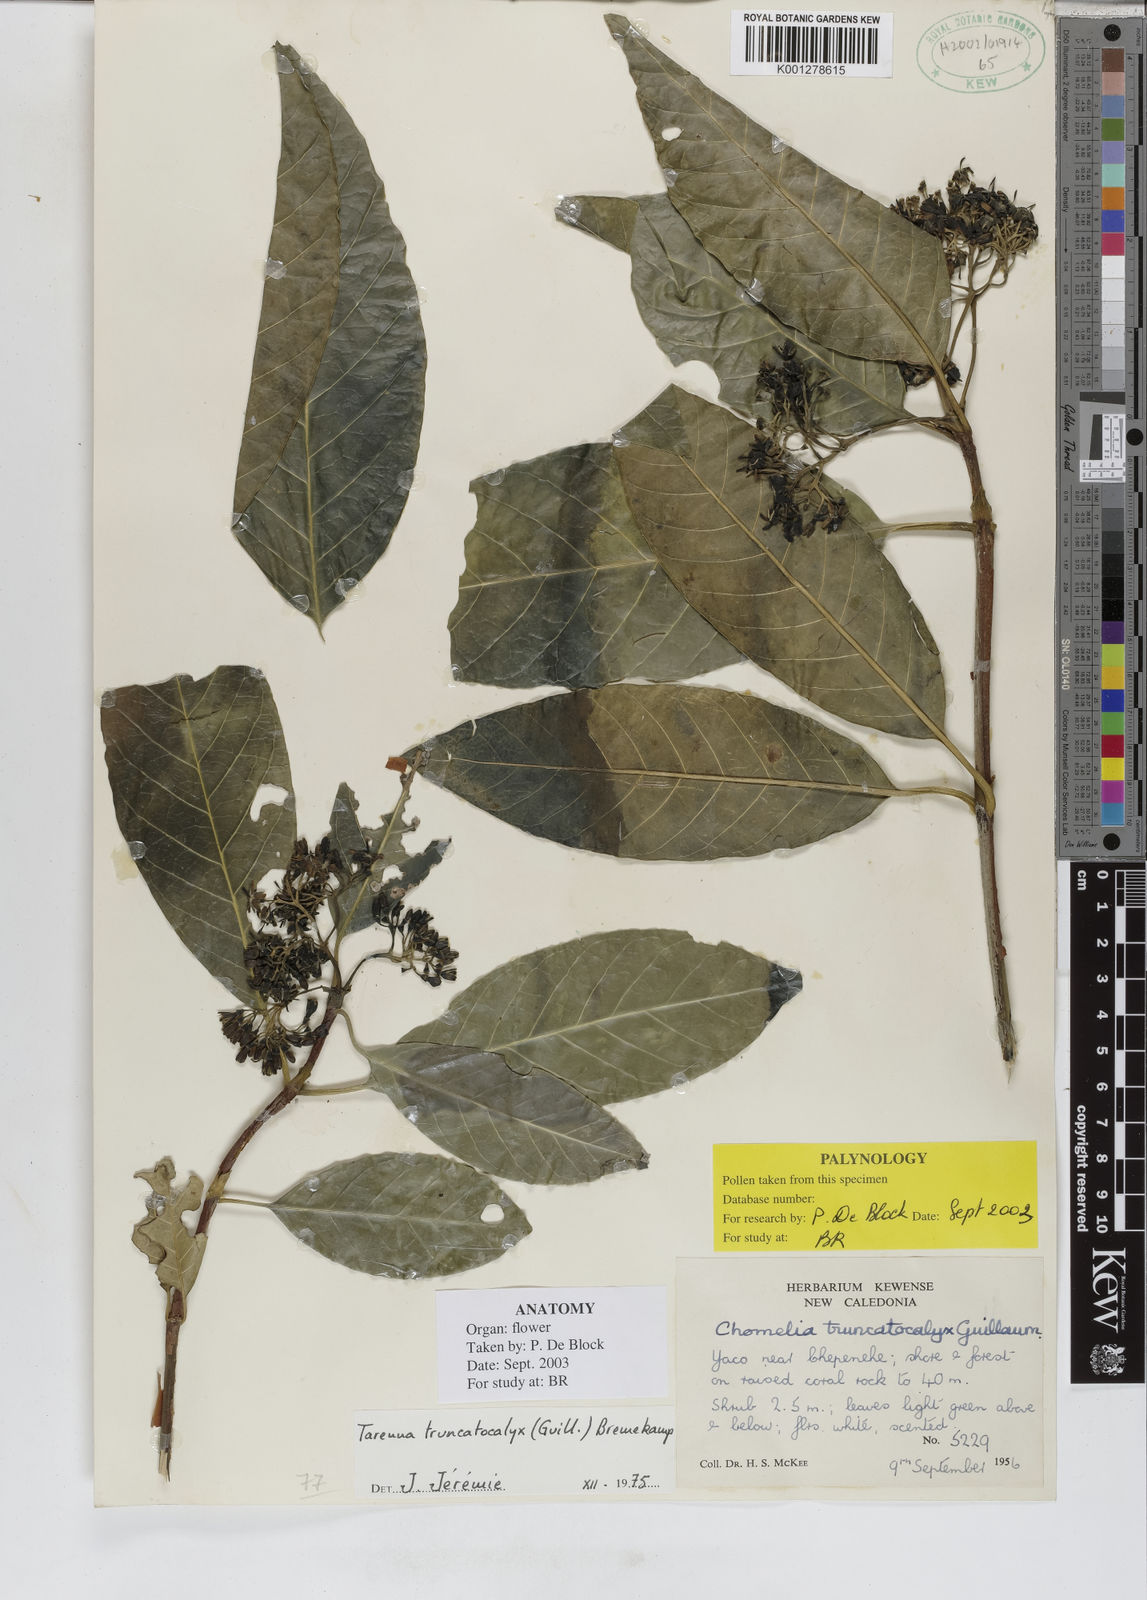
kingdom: Plantae
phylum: Tracheophyta
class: Magnoliopsida
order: Gentianales
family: Rubiaceae
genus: Tarenna
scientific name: Tarenna truncatocalyx
